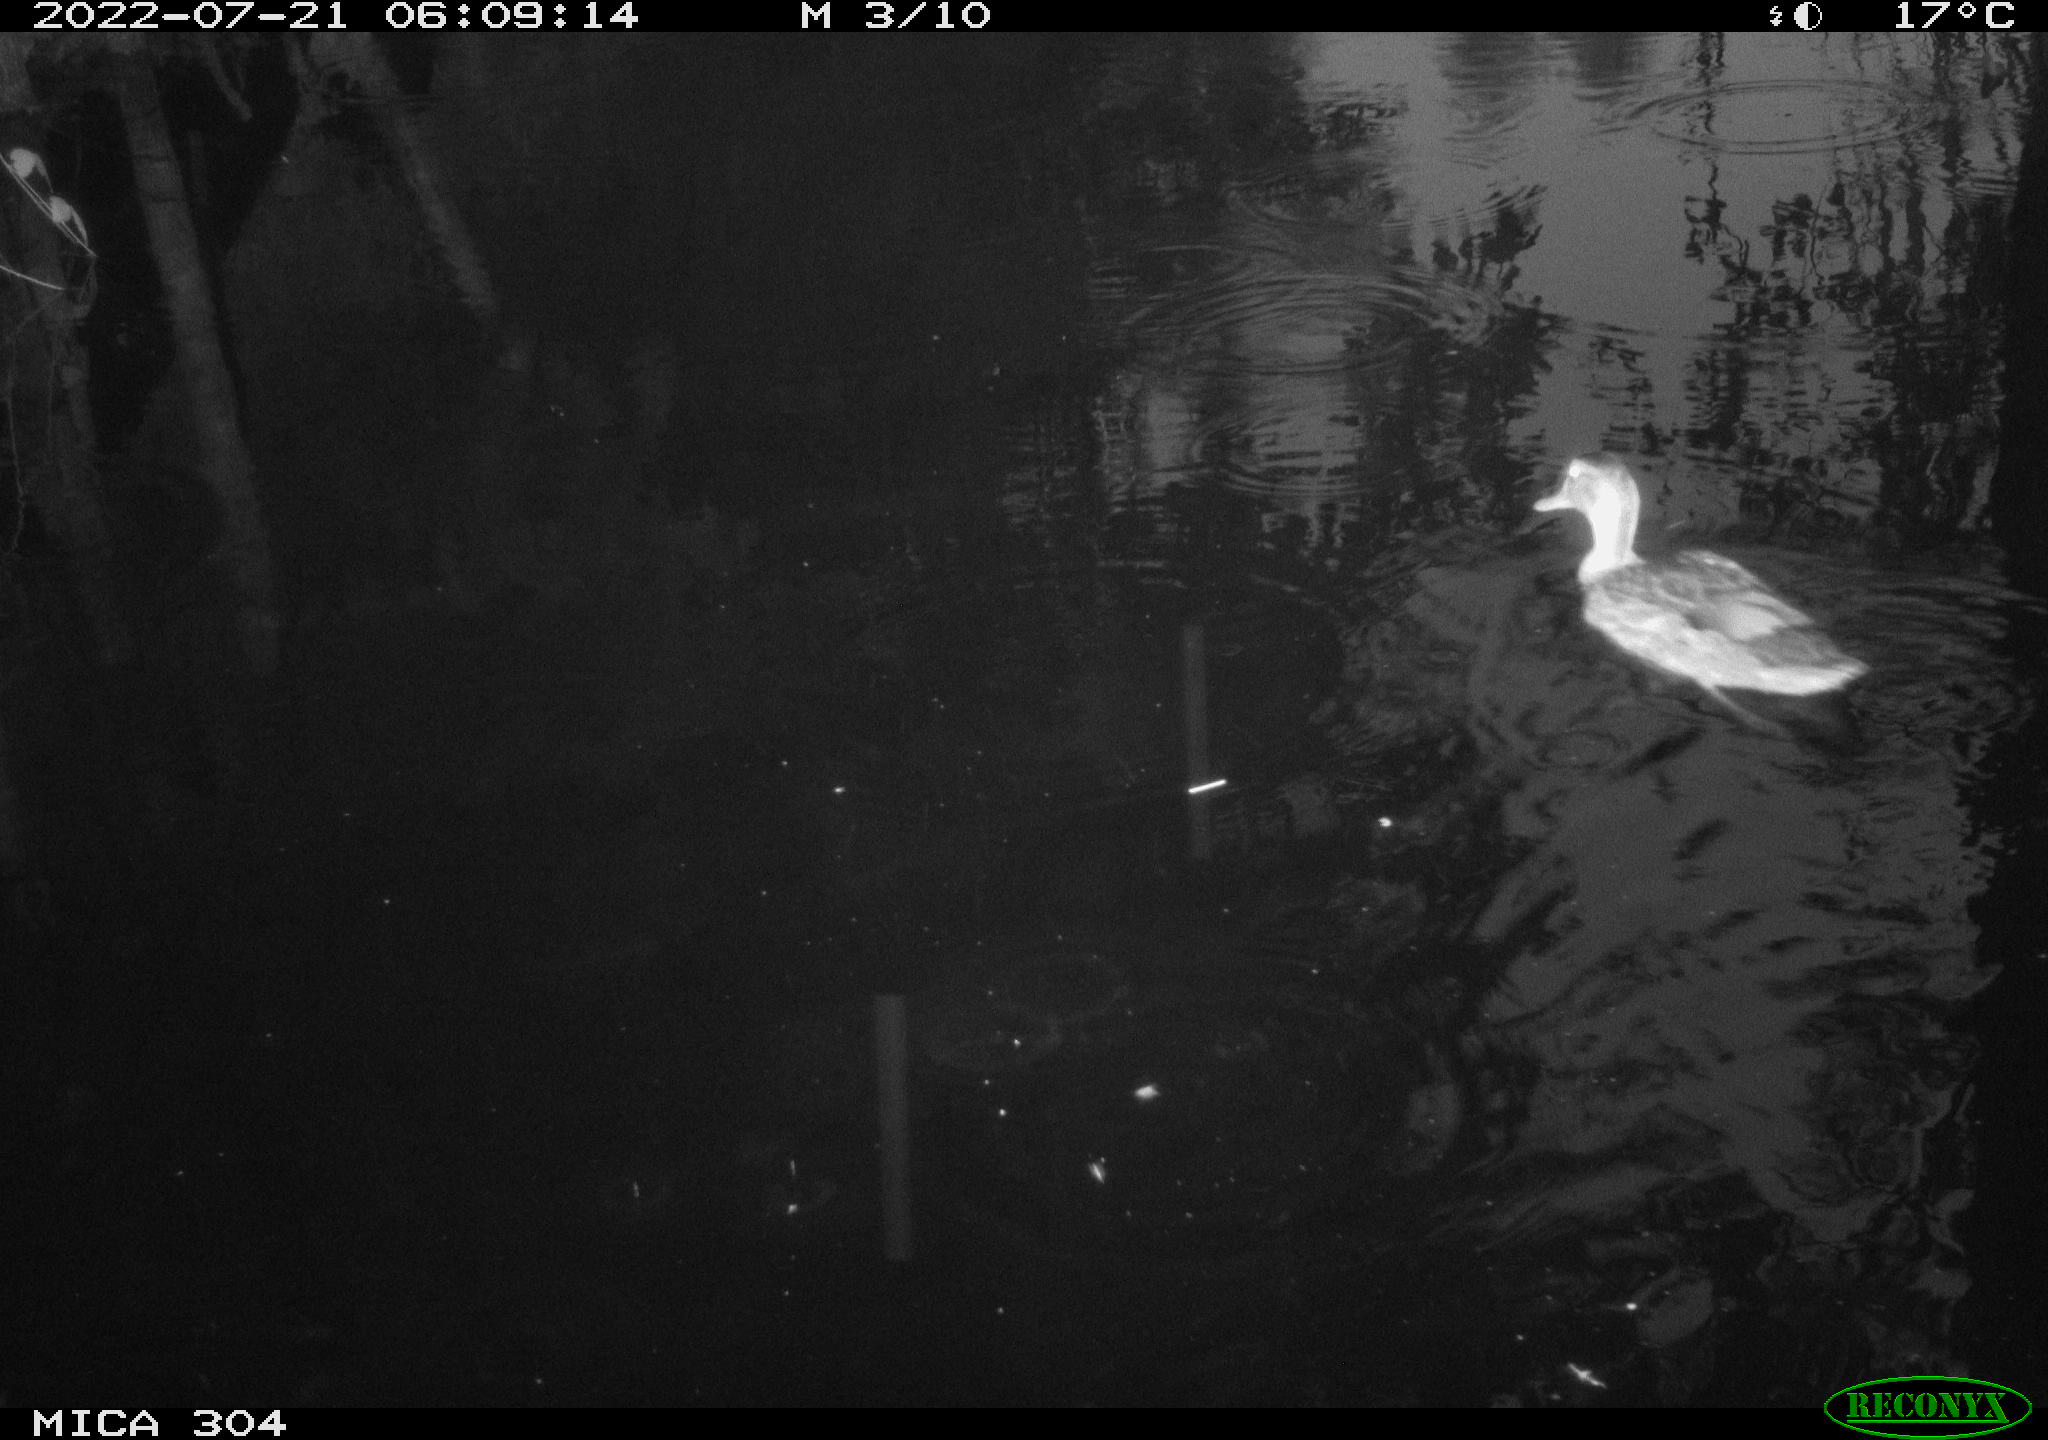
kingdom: Animalia
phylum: Chordata
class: Aves
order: Anseriformes
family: Anatidae
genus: Anas
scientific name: Anas platyrhynchos
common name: Mallard
